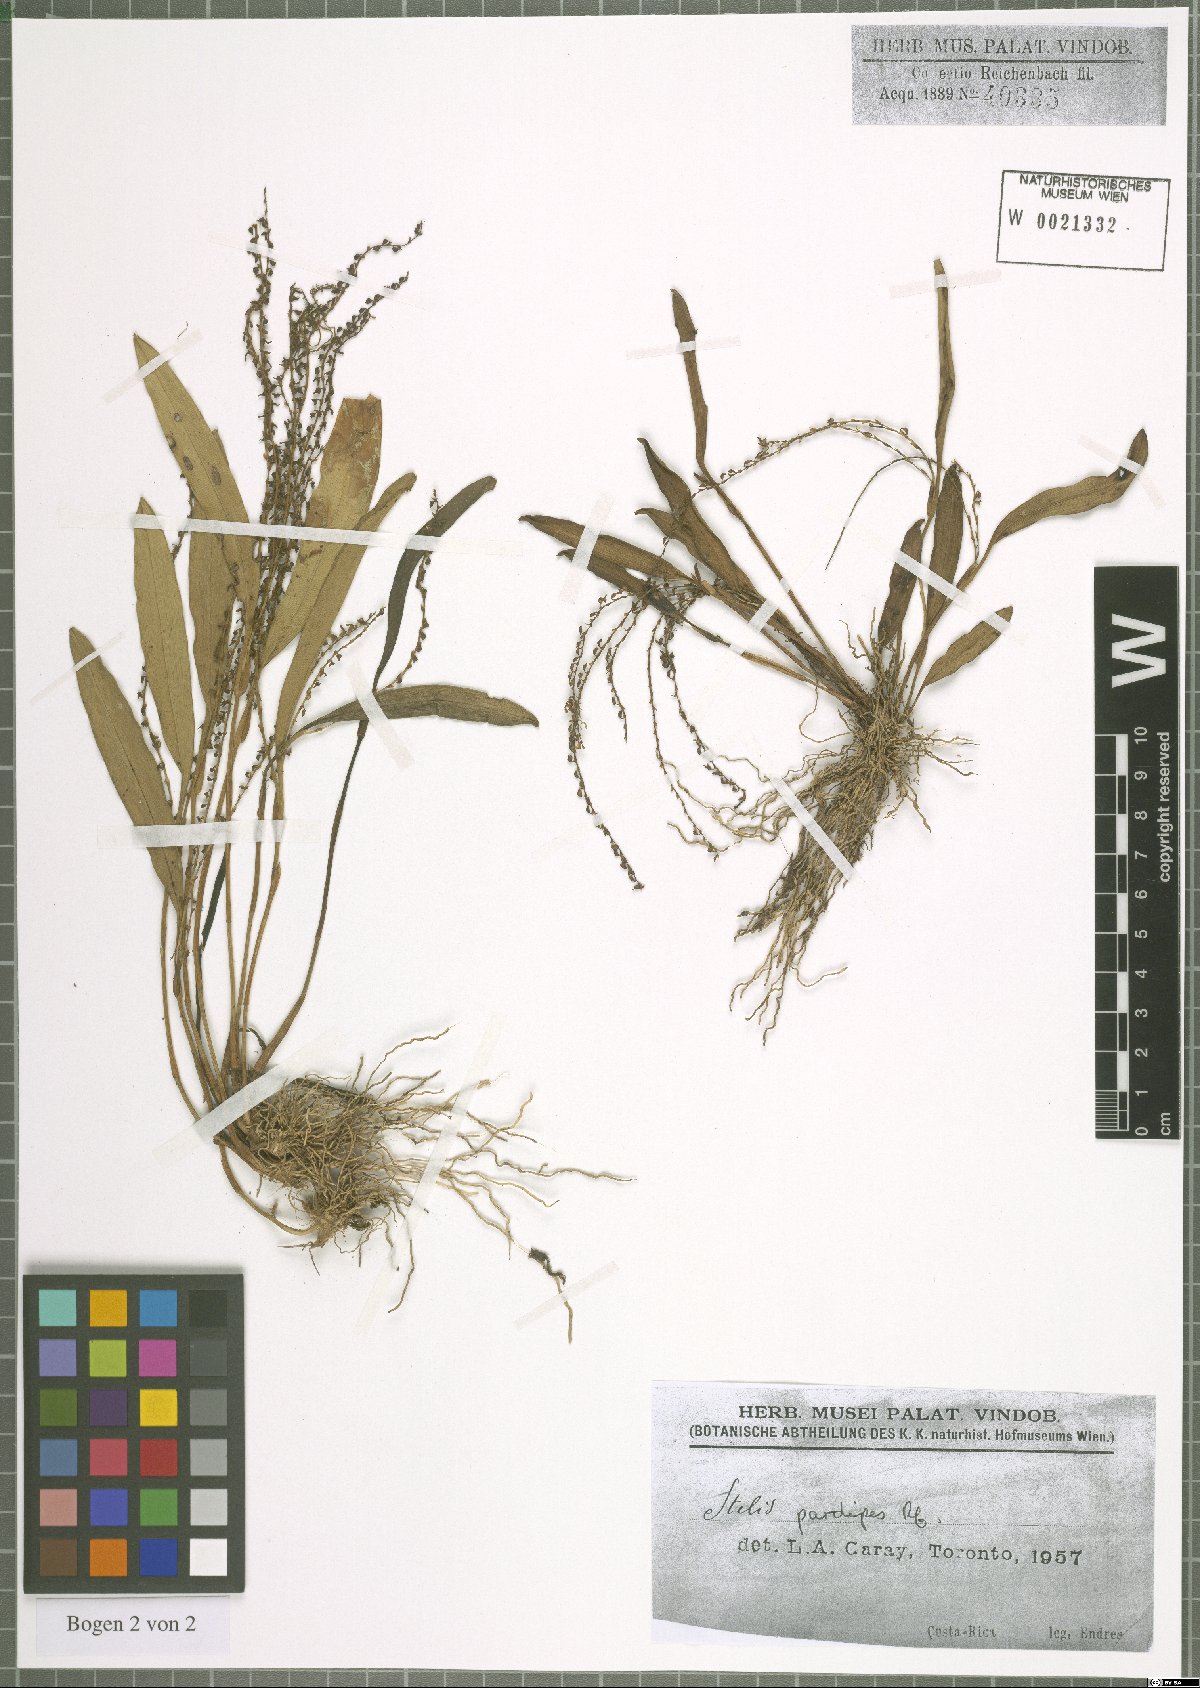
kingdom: Plantae
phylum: Tracheophyta
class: Liliopsida
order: Asparagales
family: Orchidaceae
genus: Stelis
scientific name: Stelis pardipes
